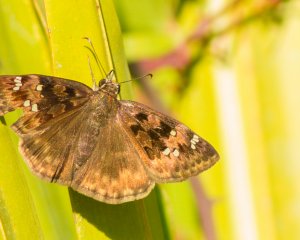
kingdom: Animalia
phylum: Arthropoda
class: Insecta
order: Lepidoptera
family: Hesperiidae
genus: Gesta
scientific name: Gesta
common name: Horace's Duskywing
